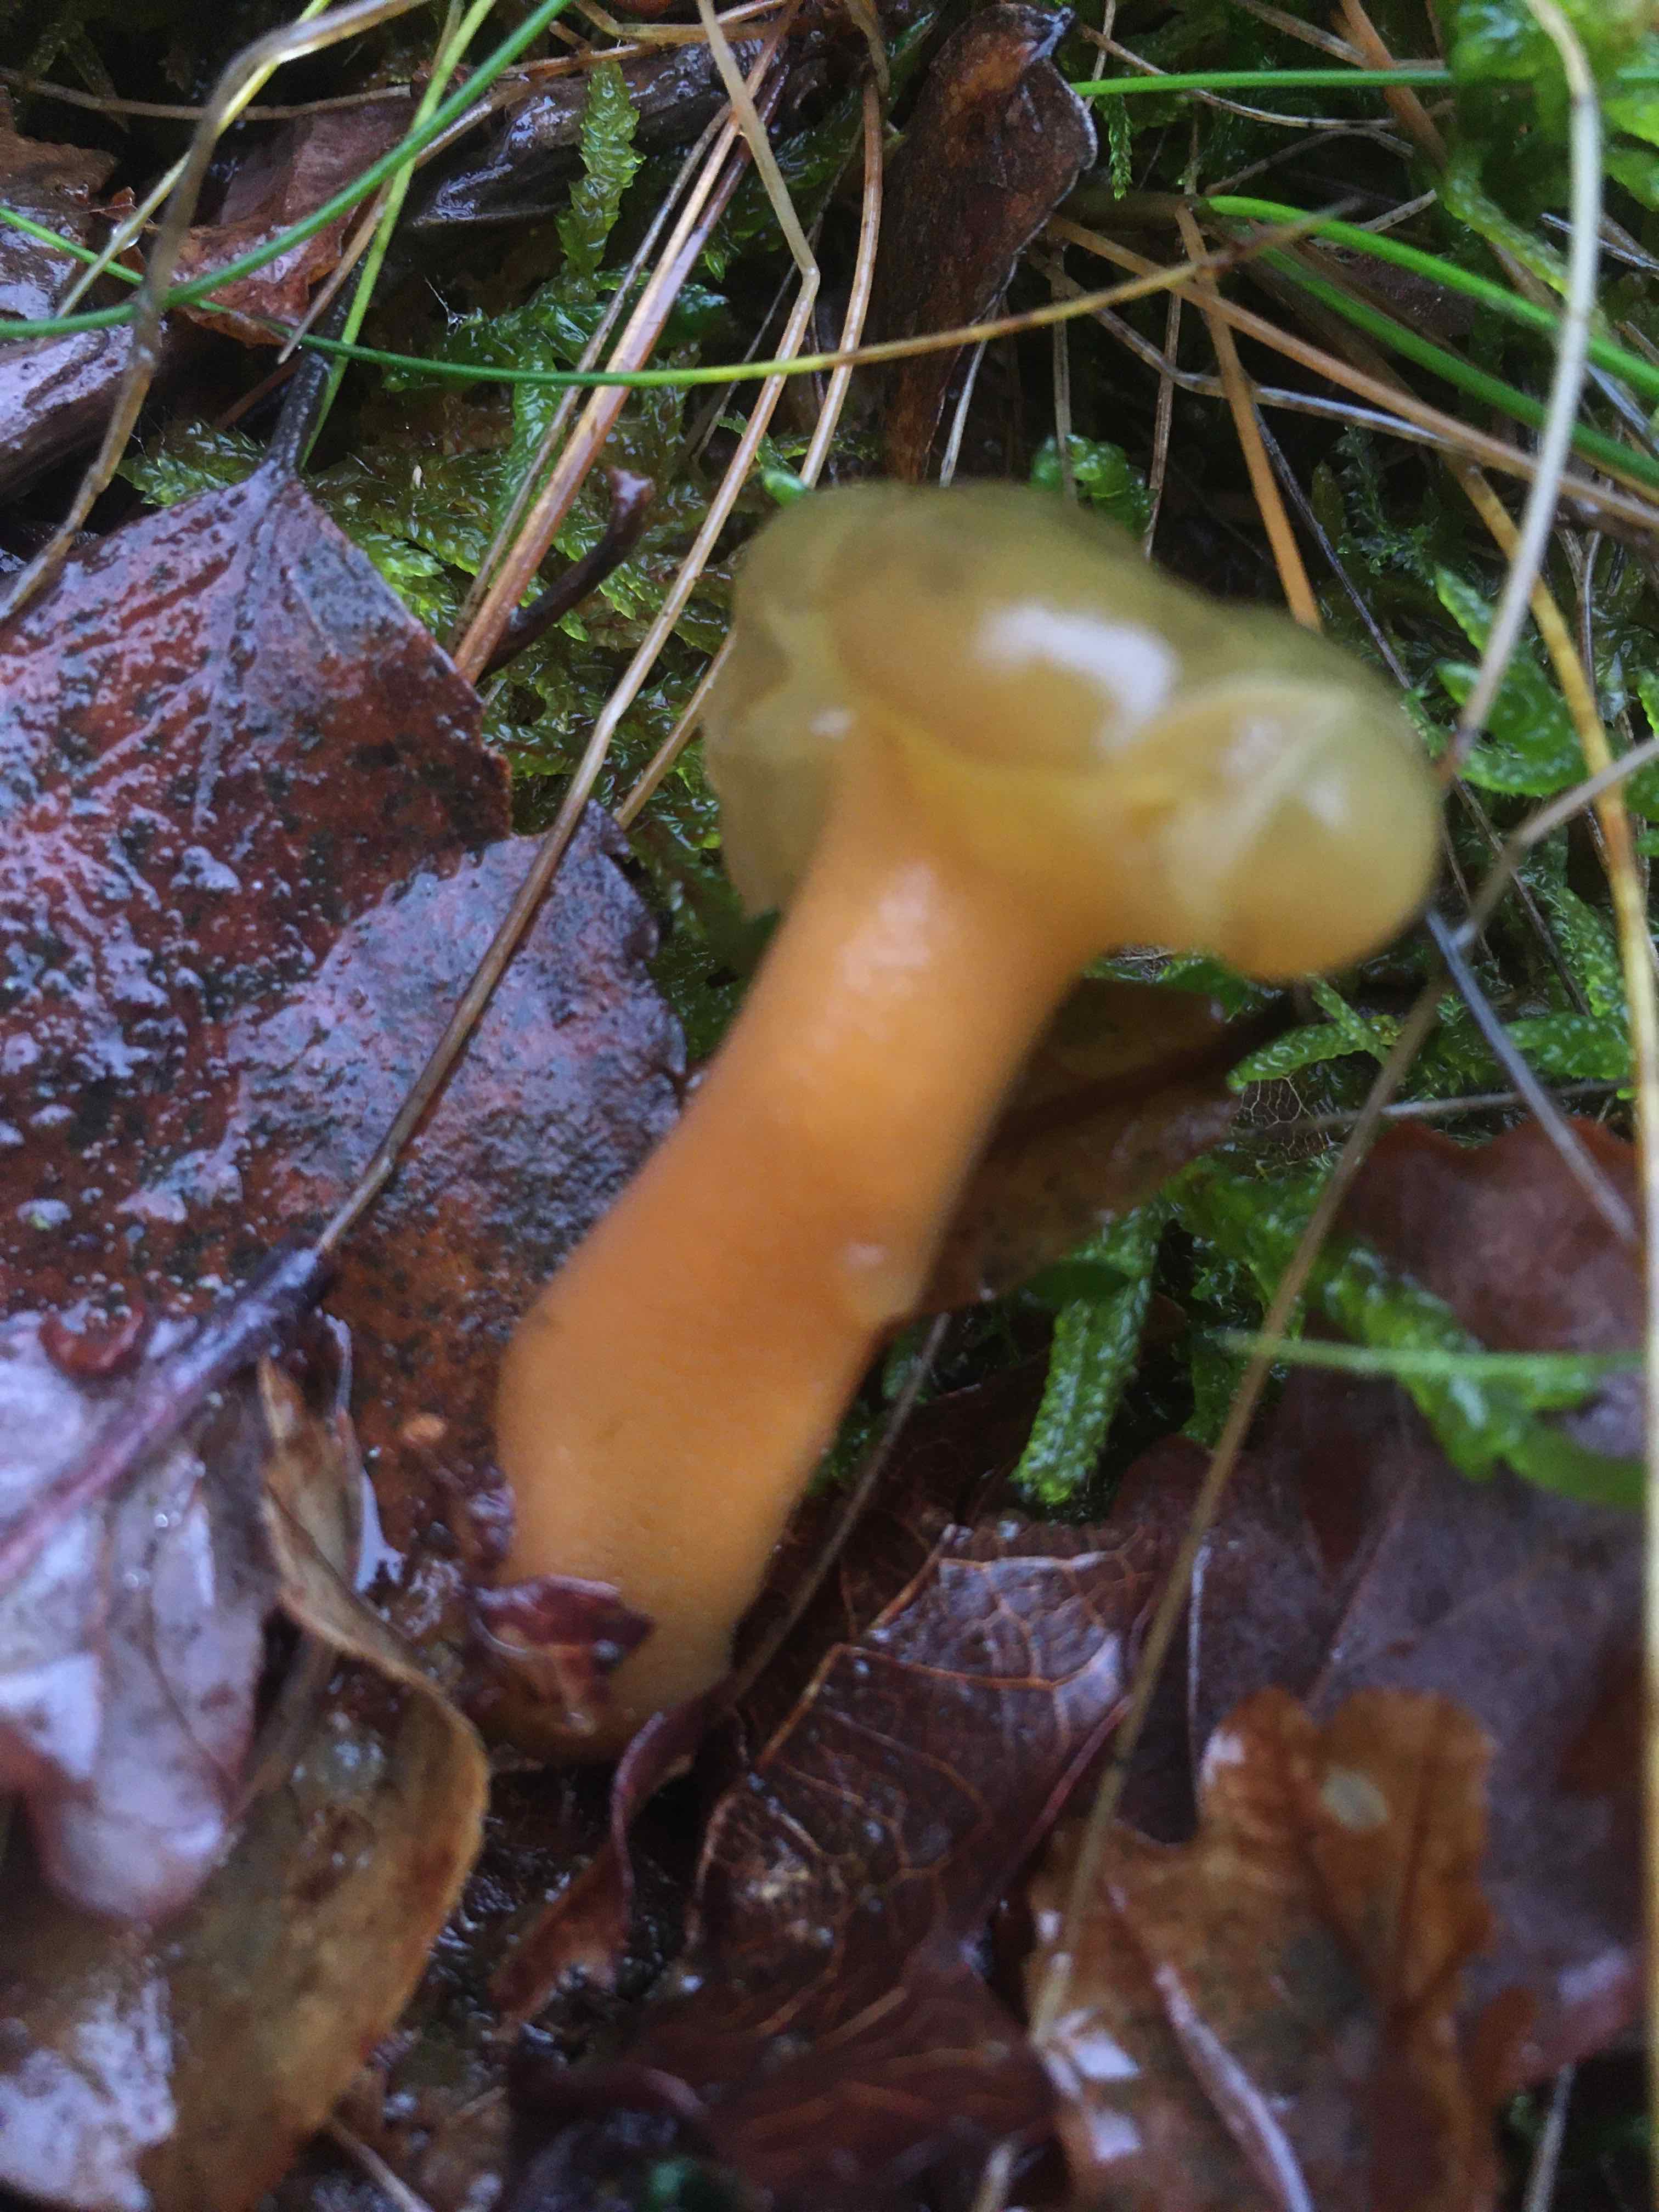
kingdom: Fungi
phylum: Ascomycota
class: Leotiomycetes
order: Leotiales
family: Leotiaceae
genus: Leotia
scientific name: Leotia lubrica
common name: ravsvamp
